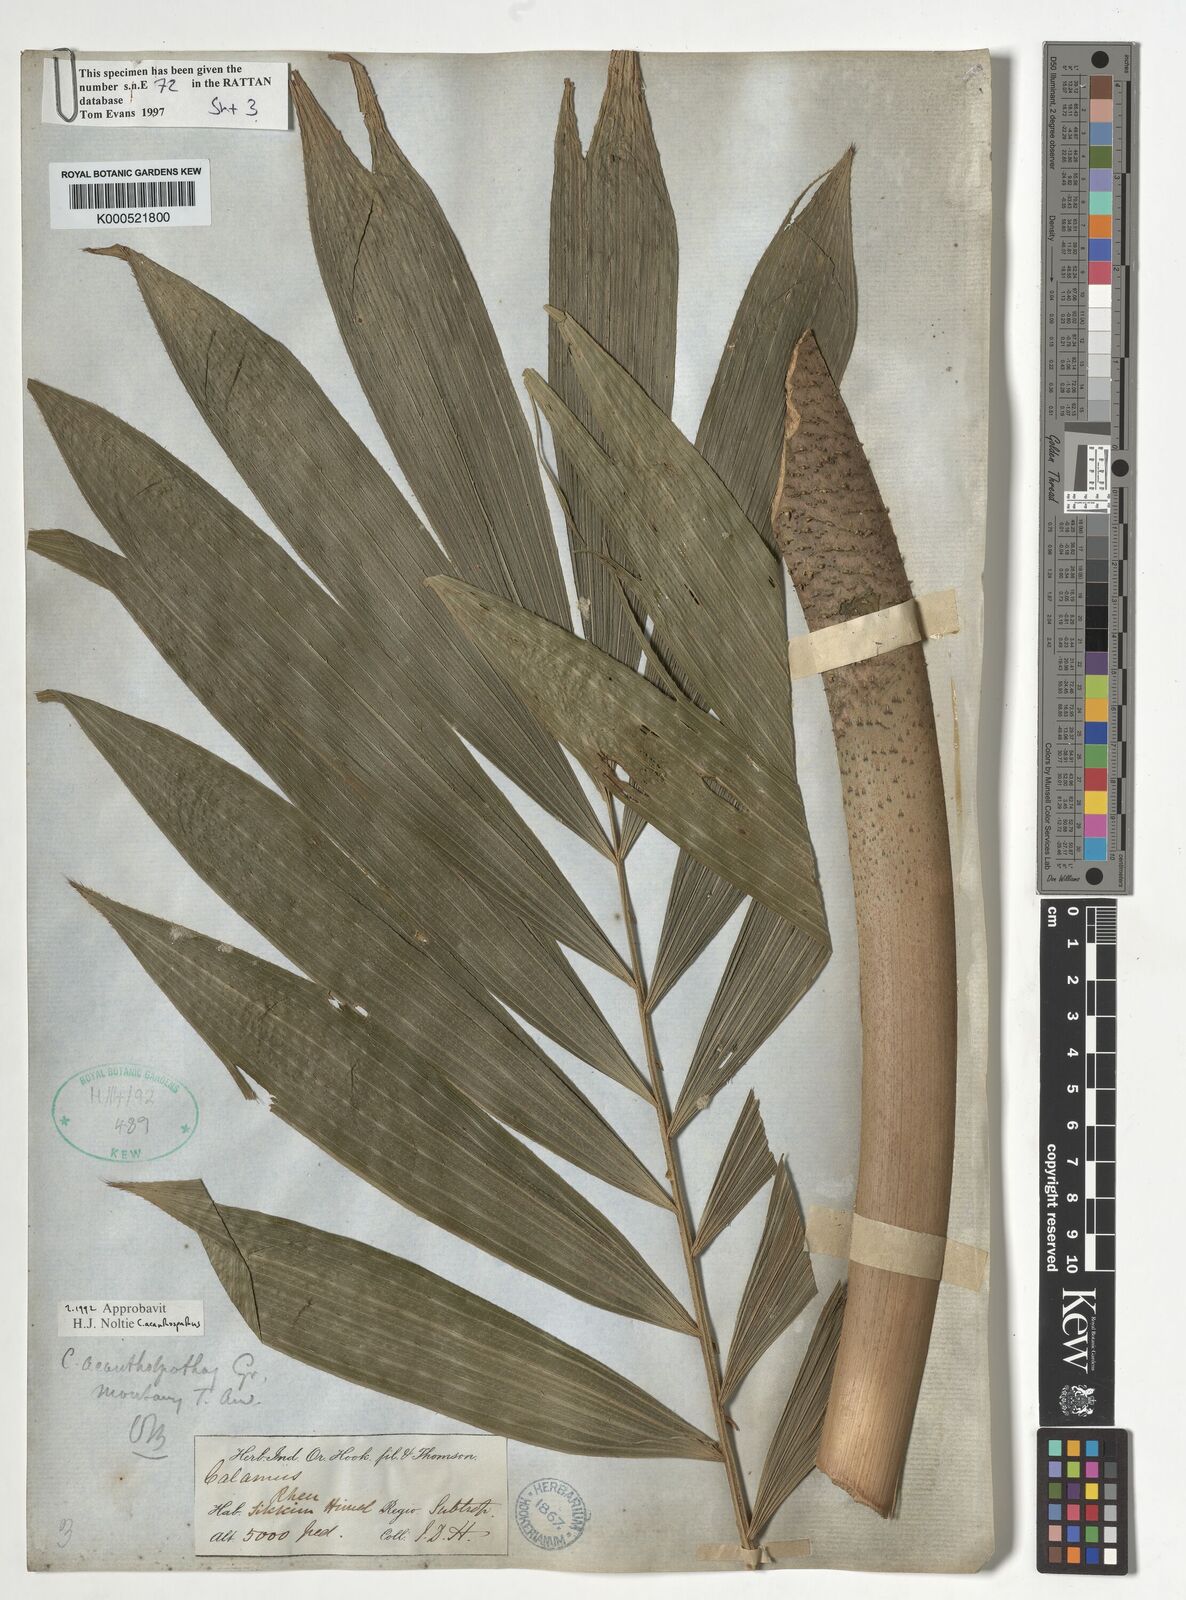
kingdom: Plantae
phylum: Tracheophyta
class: Liliopsida
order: Arecales
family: Arecaceae
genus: Calamus
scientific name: Calamus acanthospathus
